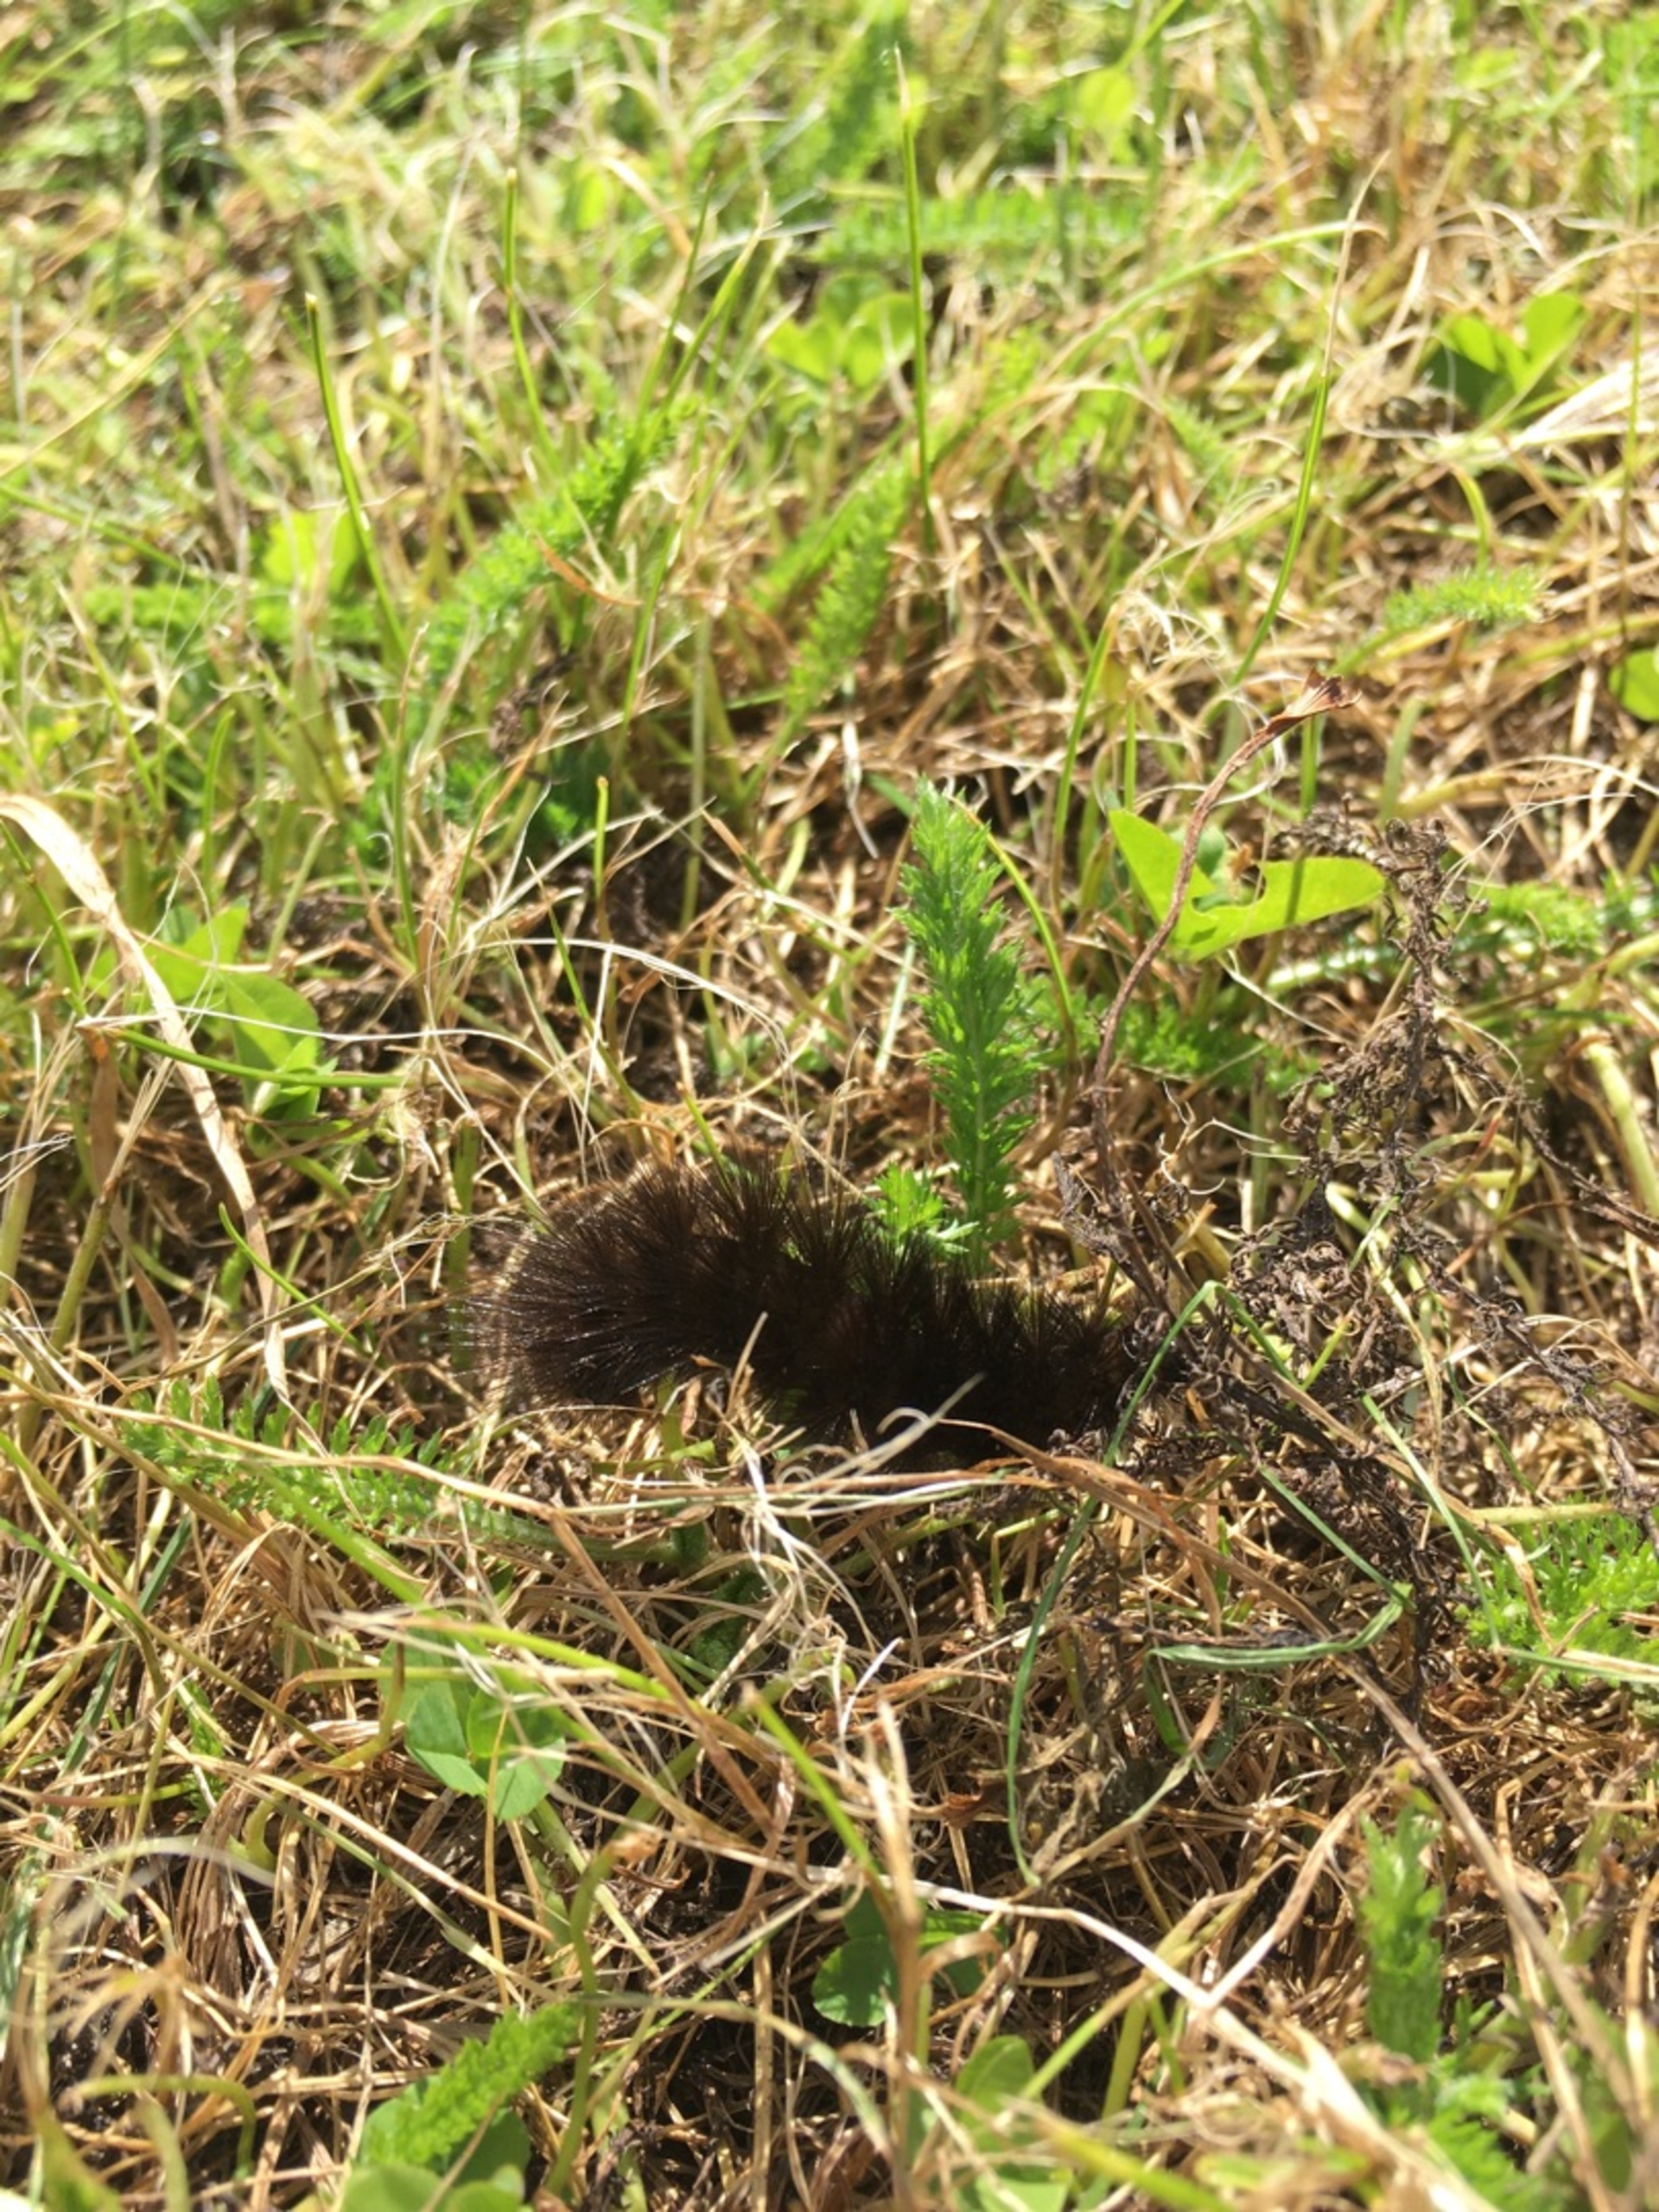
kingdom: Animalia
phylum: Arthropoda
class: Insecta
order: Lepidoptera
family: Erebidae
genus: Arctia
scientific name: Arctia caja
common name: Brun bjørn
